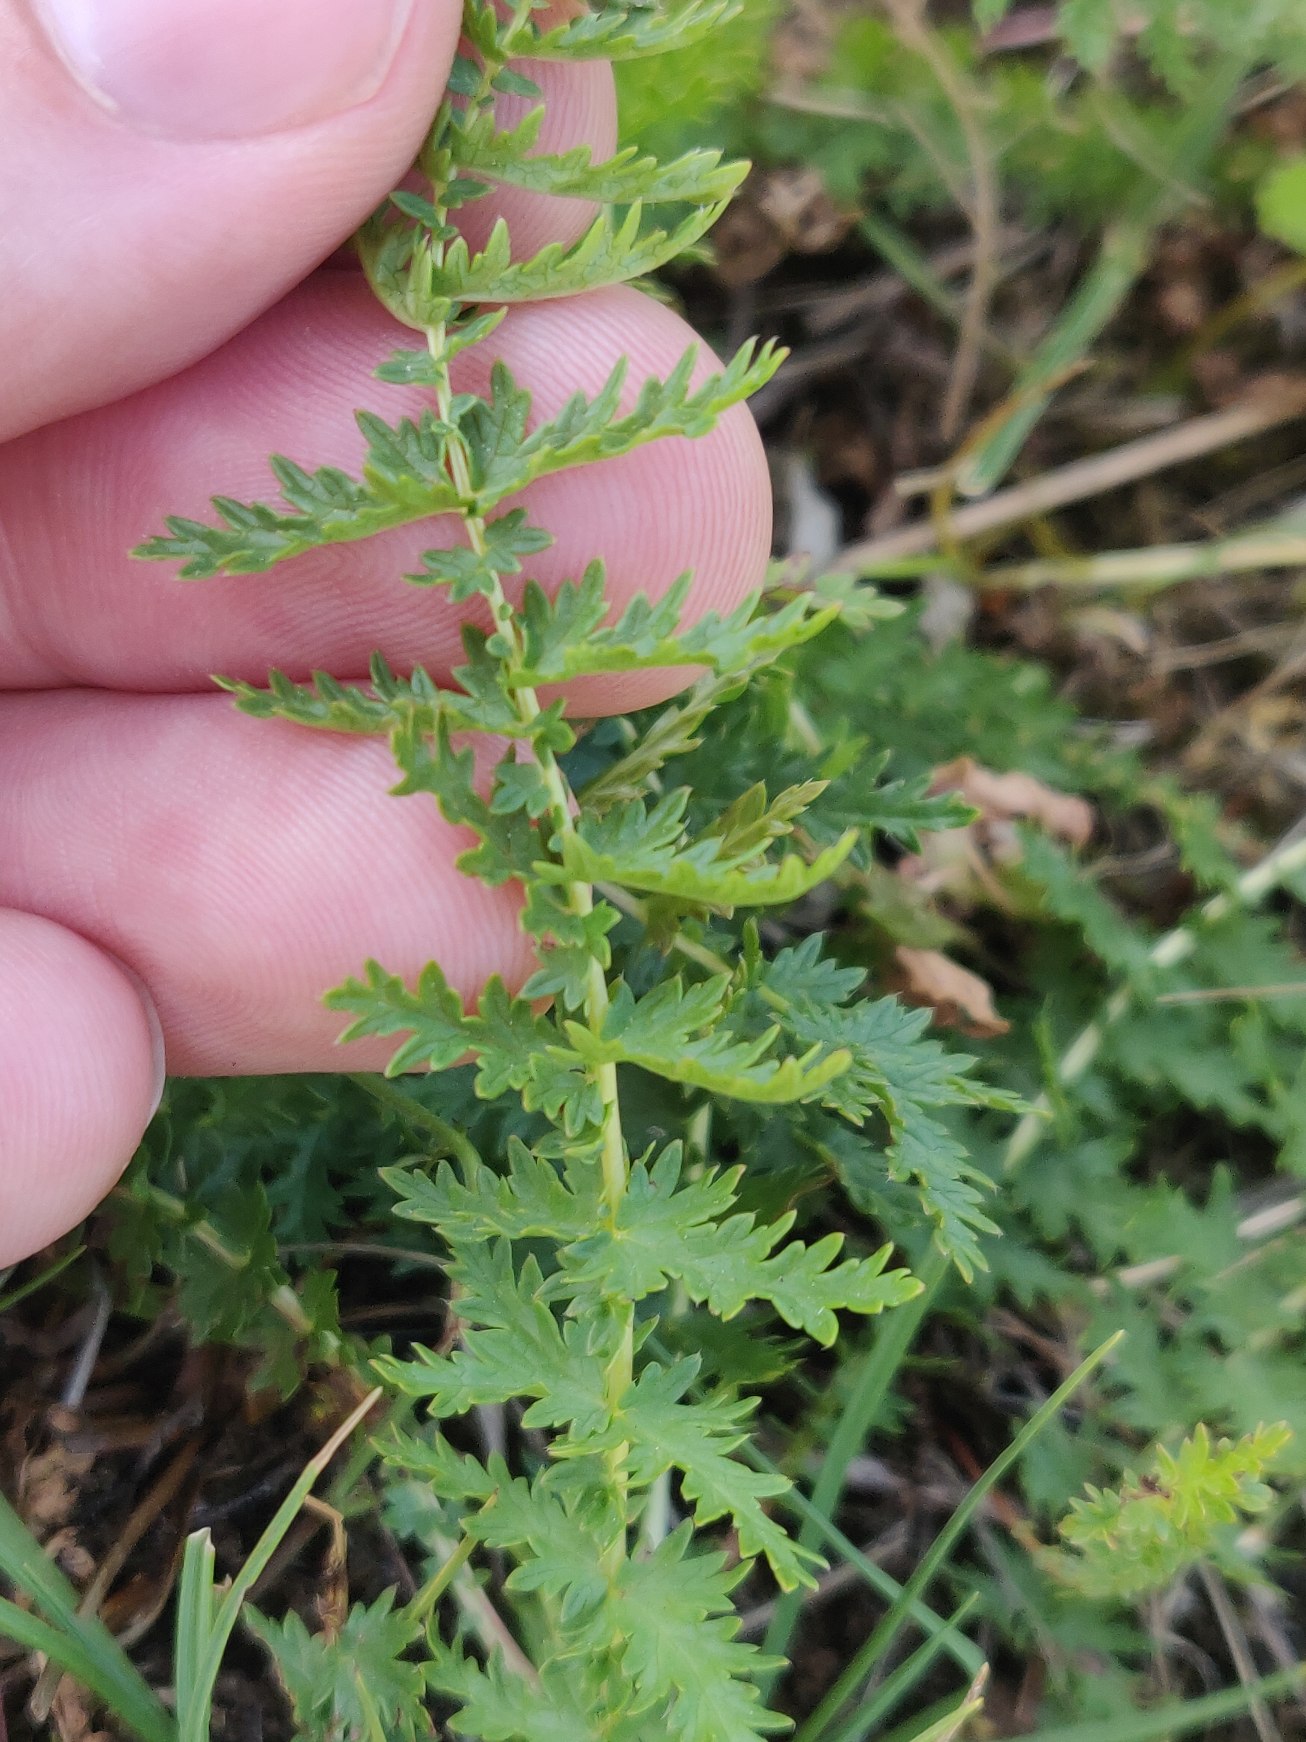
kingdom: Plantae
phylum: Tracheophyta
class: Magnoliopsida
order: Rosales
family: Rosaceae
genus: Filipendula
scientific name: Filipendula vulgaris
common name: Knoldet mjødurt
